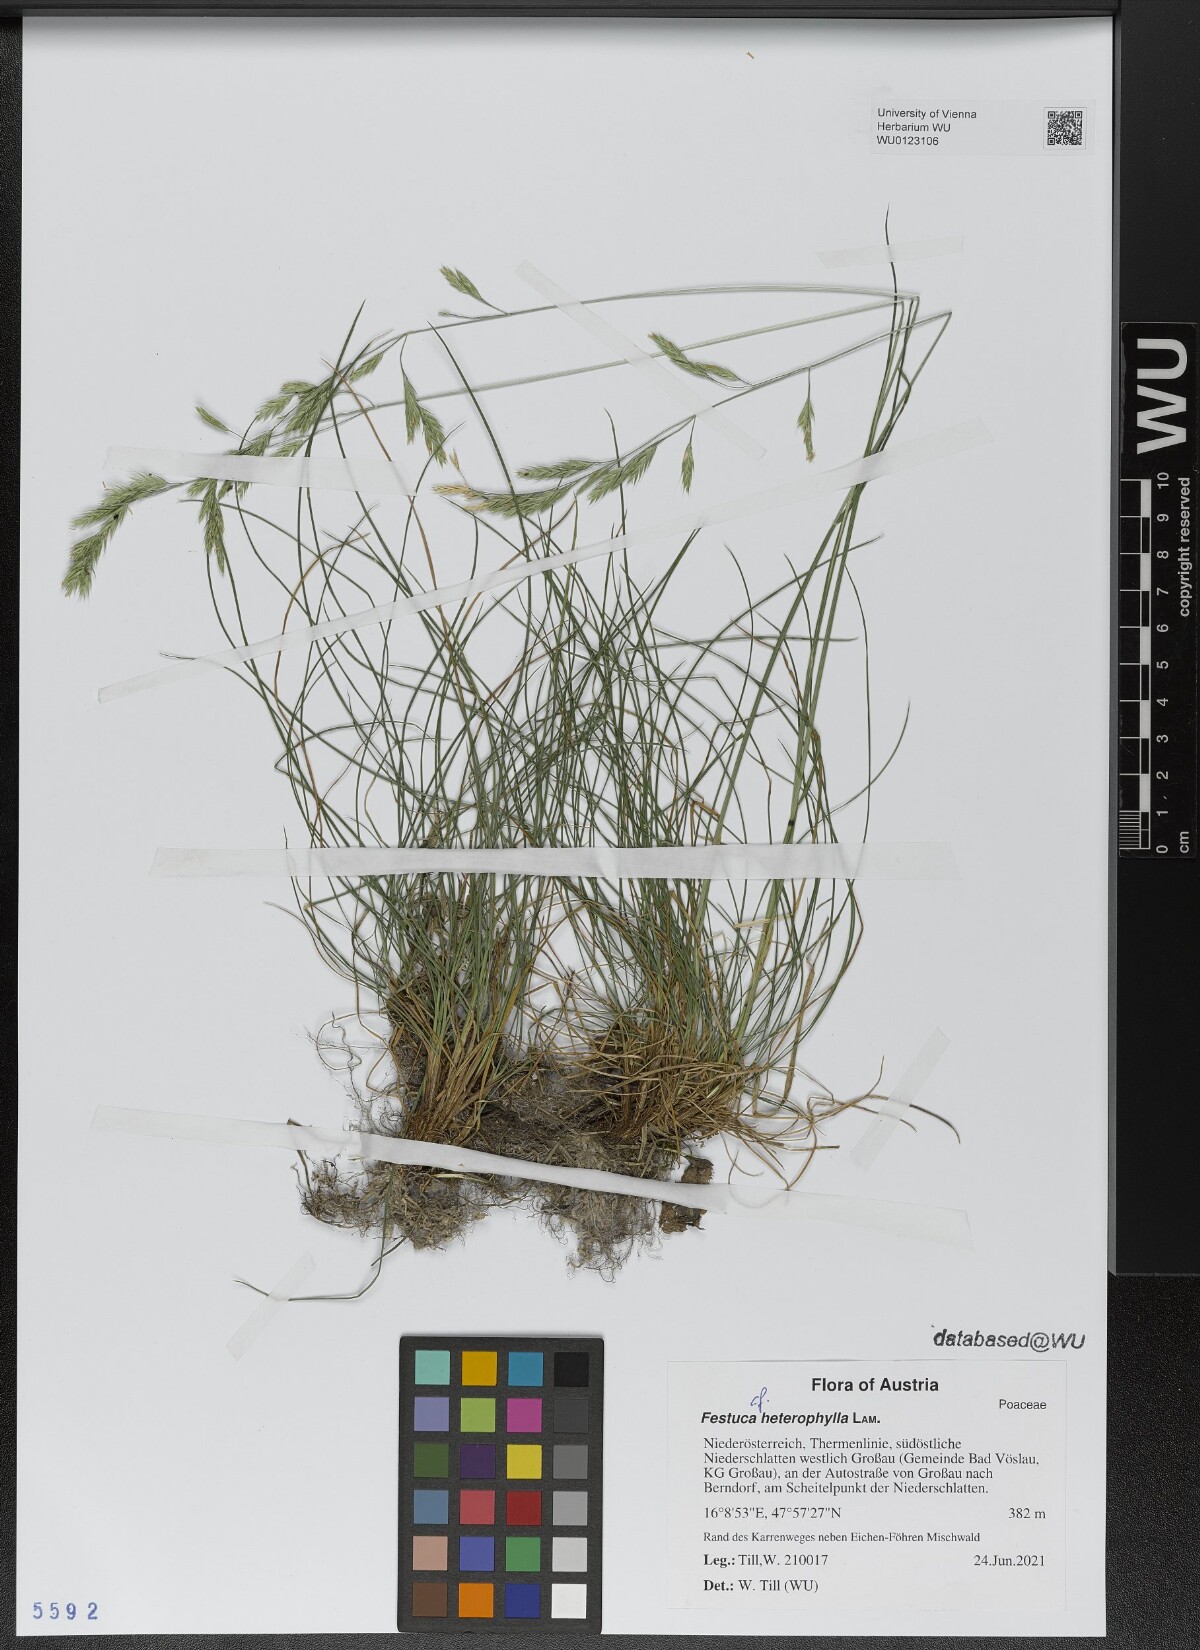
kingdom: Plantae
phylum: Tracheophyta
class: Liliopsida
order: Poales
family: Poaceae
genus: Festuca
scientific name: Festuca heterophylla
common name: Various-leaved fescue
